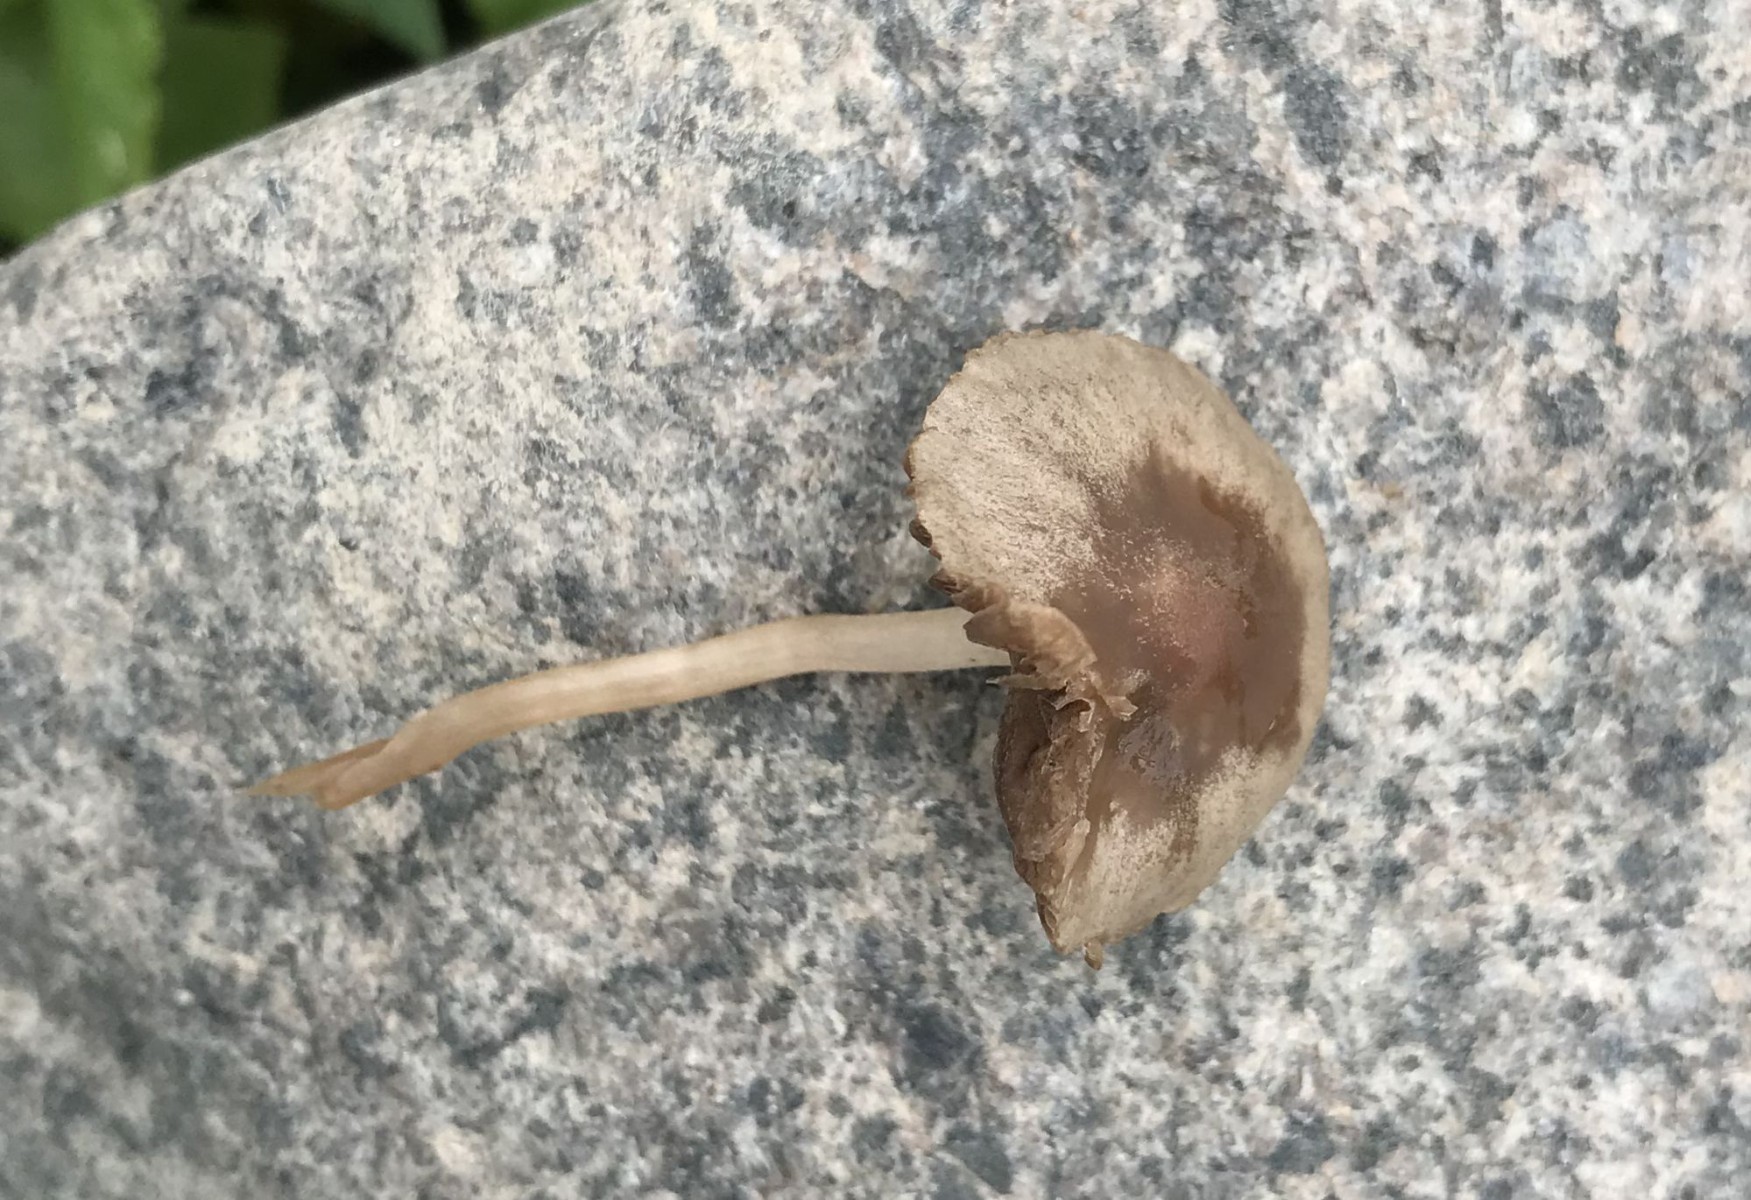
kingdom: Fungi
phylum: Basidiomycota
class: Agaricomycetes
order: Agaricales
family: Bolbitiaceae
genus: Panaeolina
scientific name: Panaeolina foenisecii
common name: høslætsvamp
